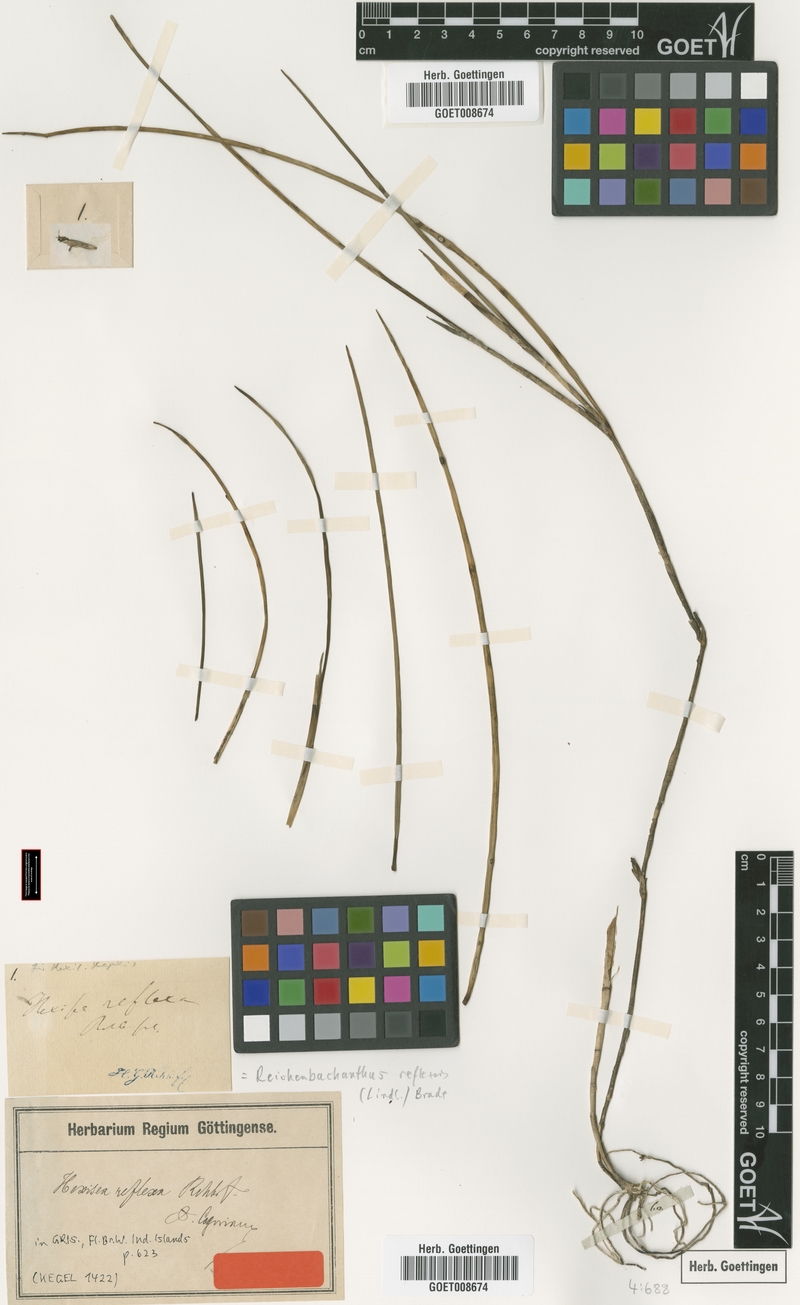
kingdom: Plantae
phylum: Tracheophyta
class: Liliopsida
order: Asparagales
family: Orchidaceae
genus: Scaphyglottis
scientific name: Scaphyglottis reflexa
